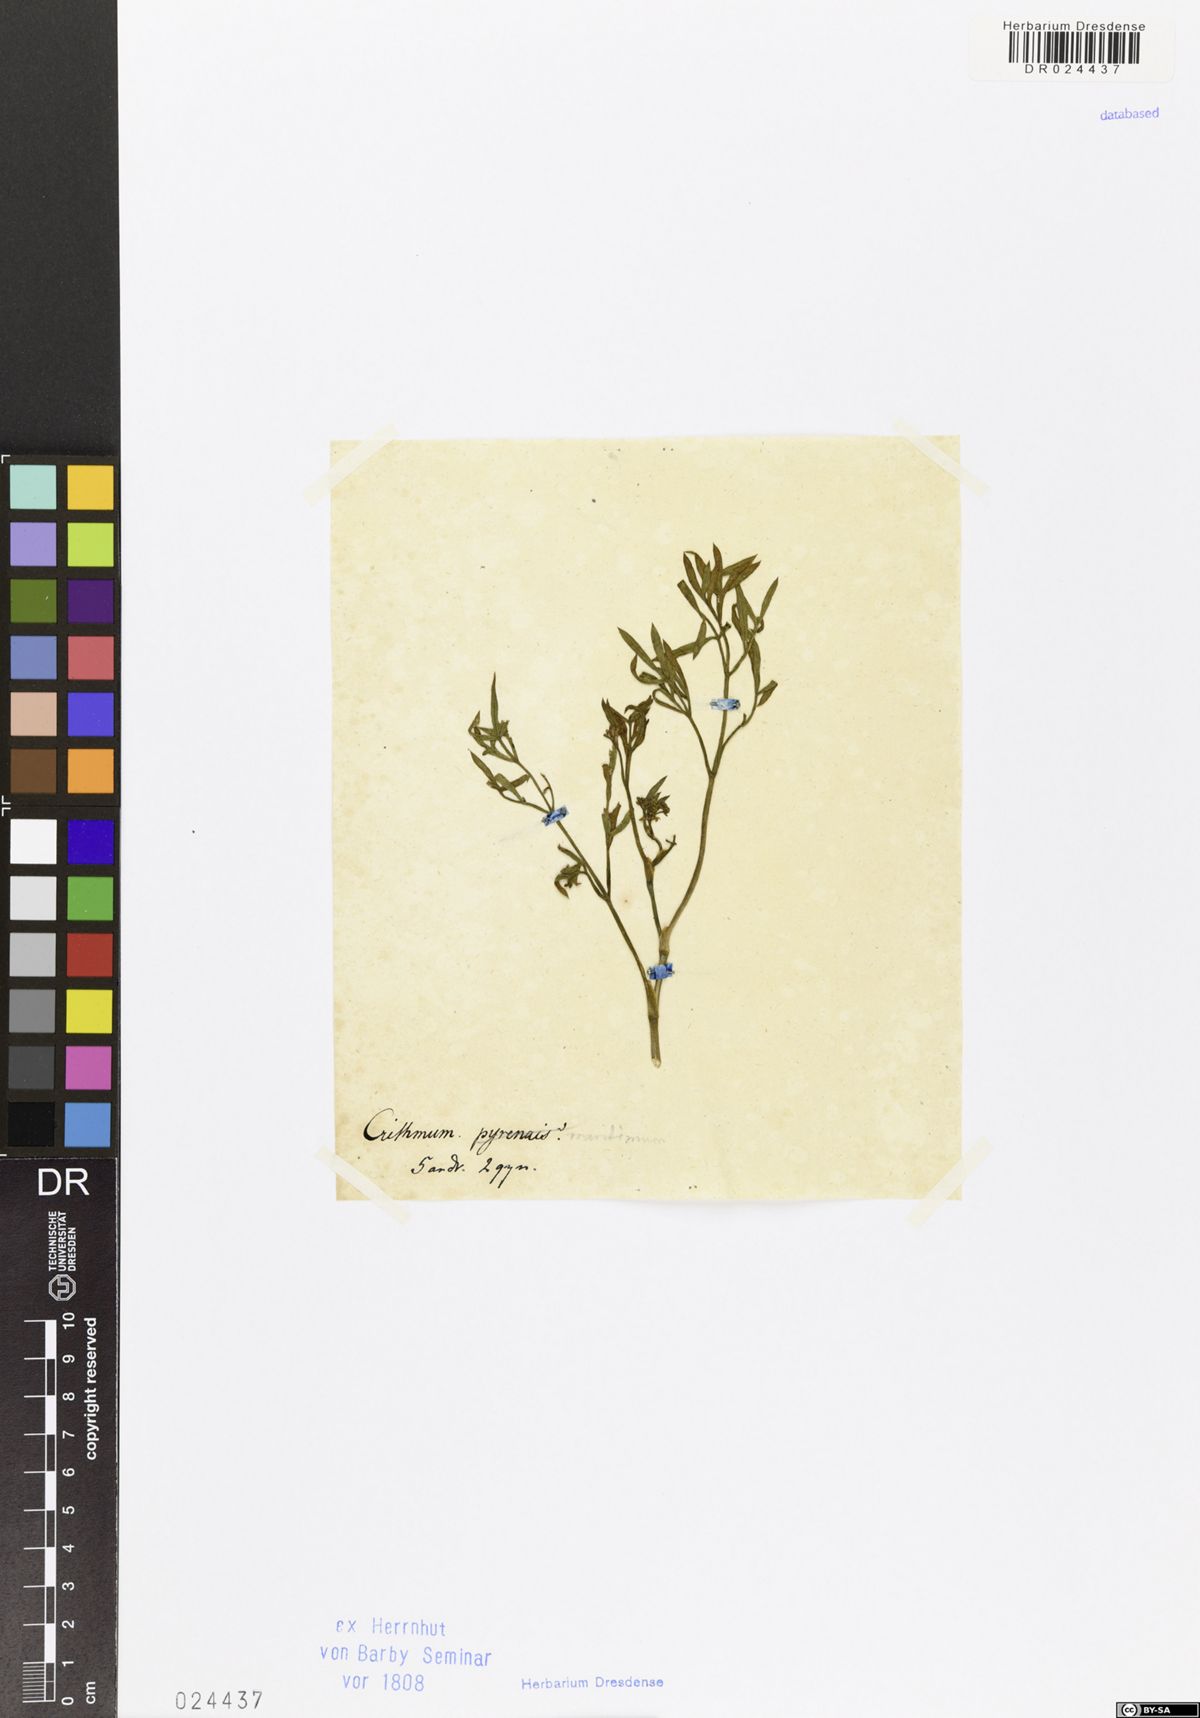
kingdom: Plantae
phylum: Tracheophyta
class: Magnoliopsida
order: Apiales
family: Apiaceae
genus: Crithmum
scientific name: Crithmum maritimum
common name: Rock samphire
